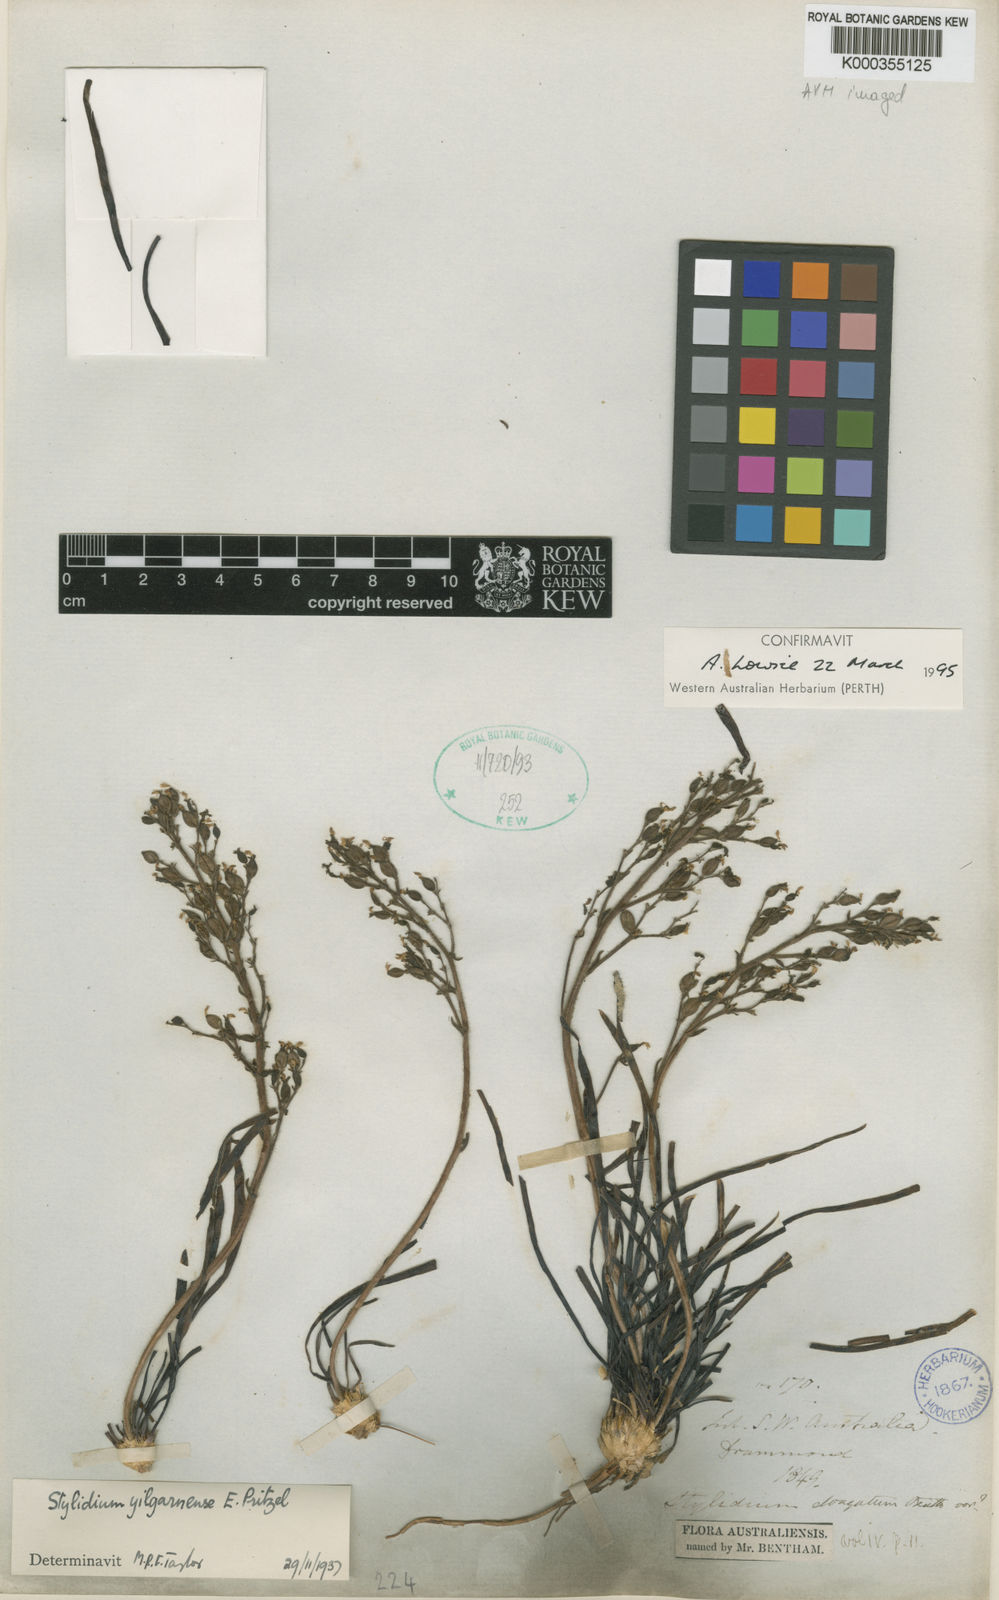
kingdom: Plantae
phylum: Tracheophyta
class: Magnoliopsida
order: Asterales
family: Stylidiaceae
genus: Stylidium
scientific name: Stylidium yilgarnense
